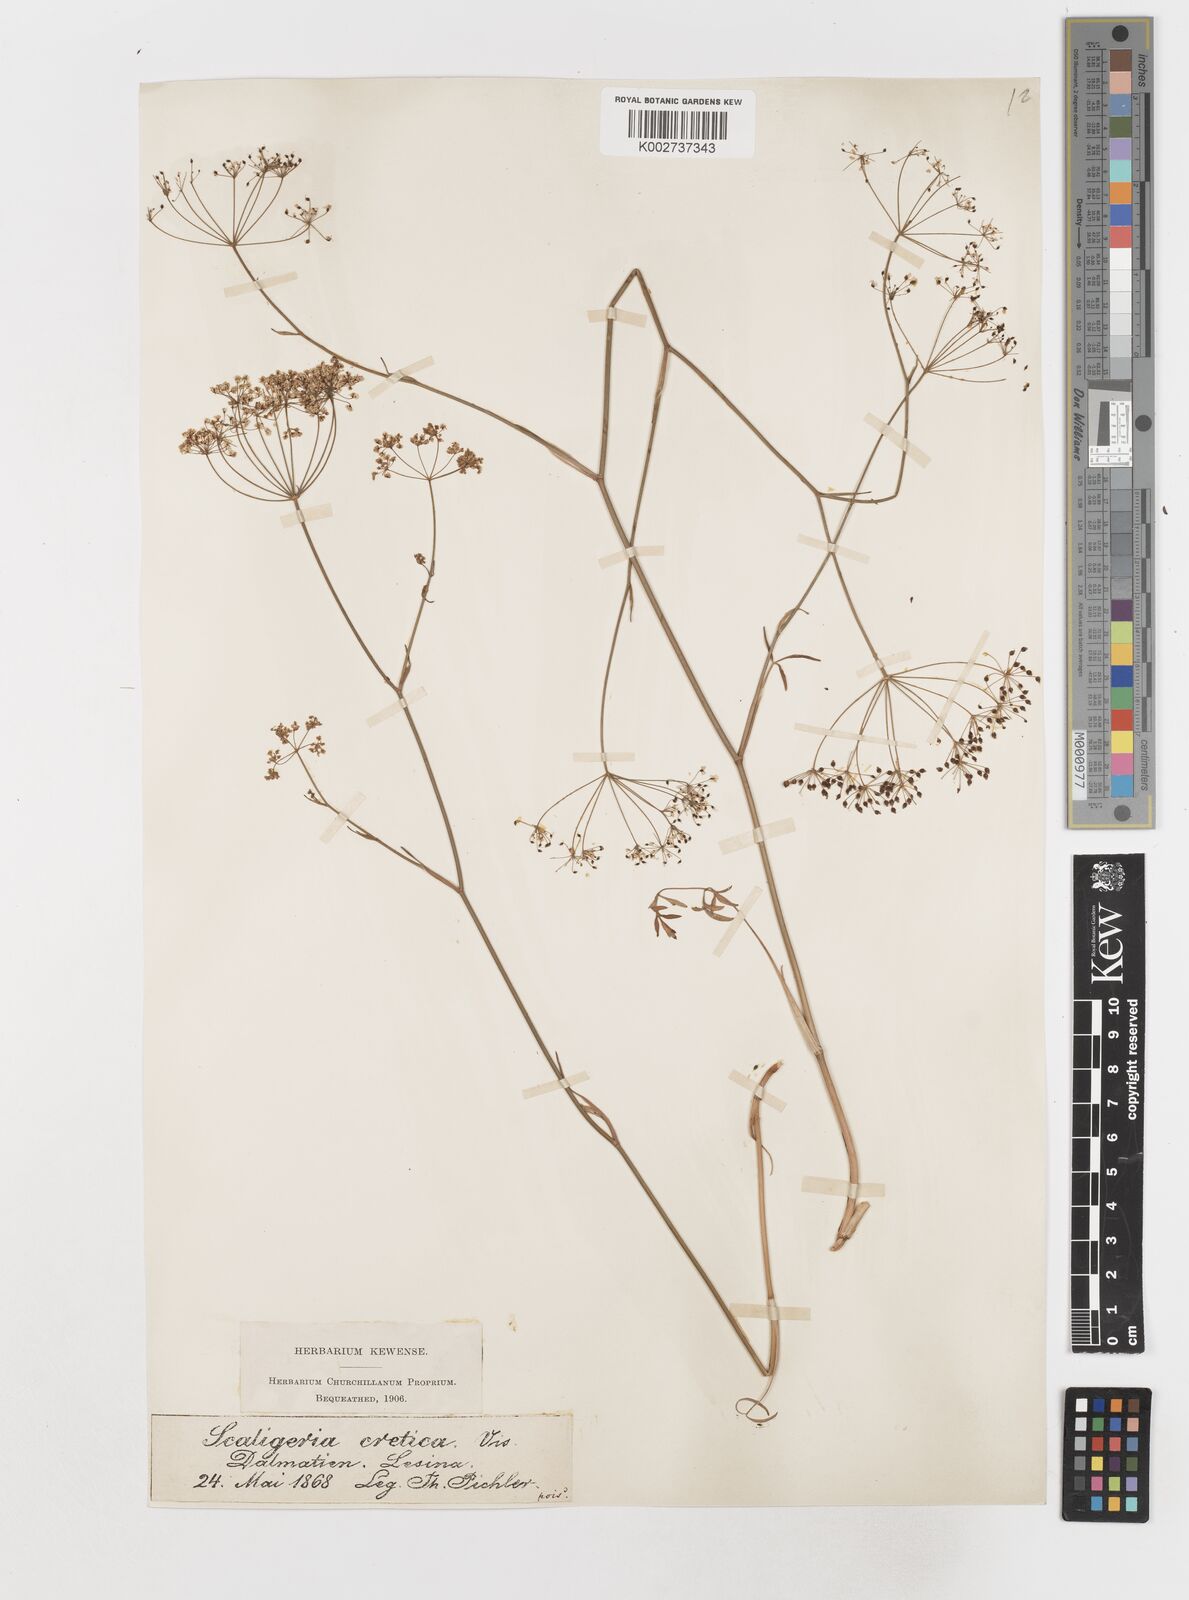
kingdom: Plantae
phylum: Tracheophyta
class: Magnoliopsida
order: Apiales
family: Apiaceae
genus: Scaligeria
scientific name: Scaligeria napiformis
